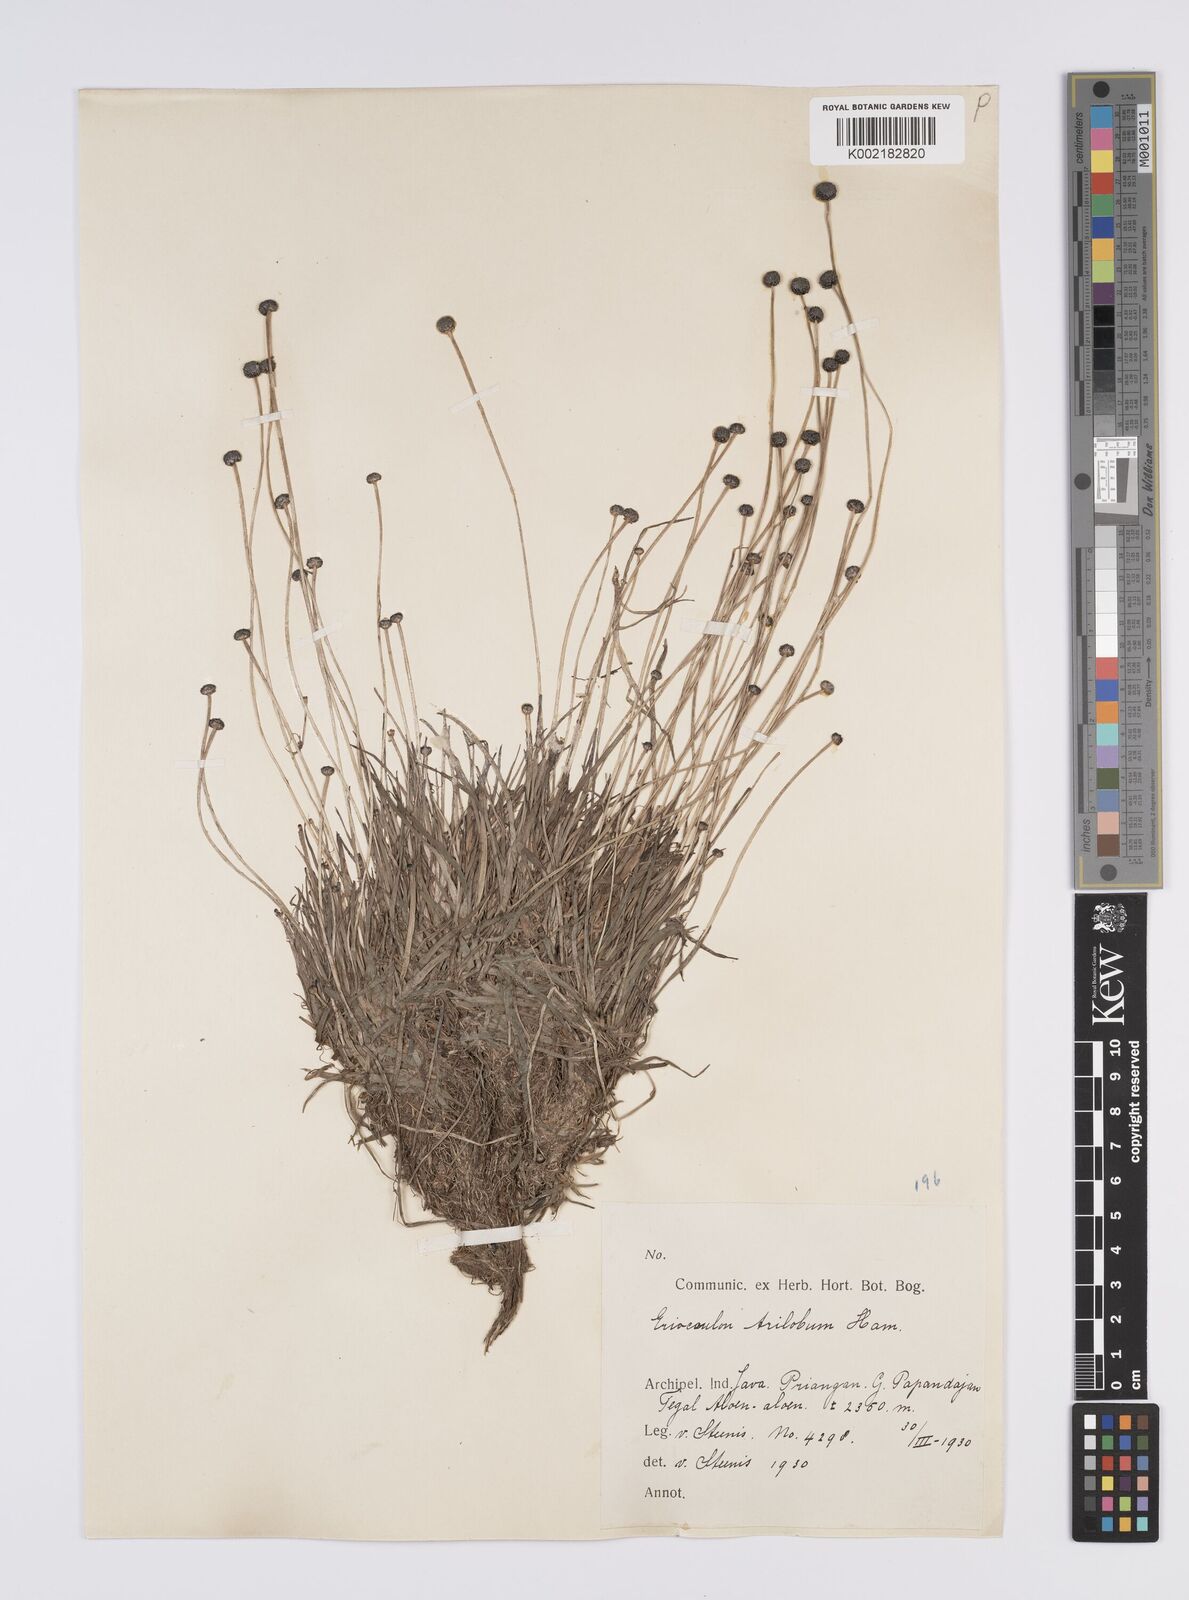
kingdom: Plantae
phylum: Tracheophyta
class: Liliopsida
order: Poales
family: Eriocaulaceae
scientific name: Eriocaulaceae
